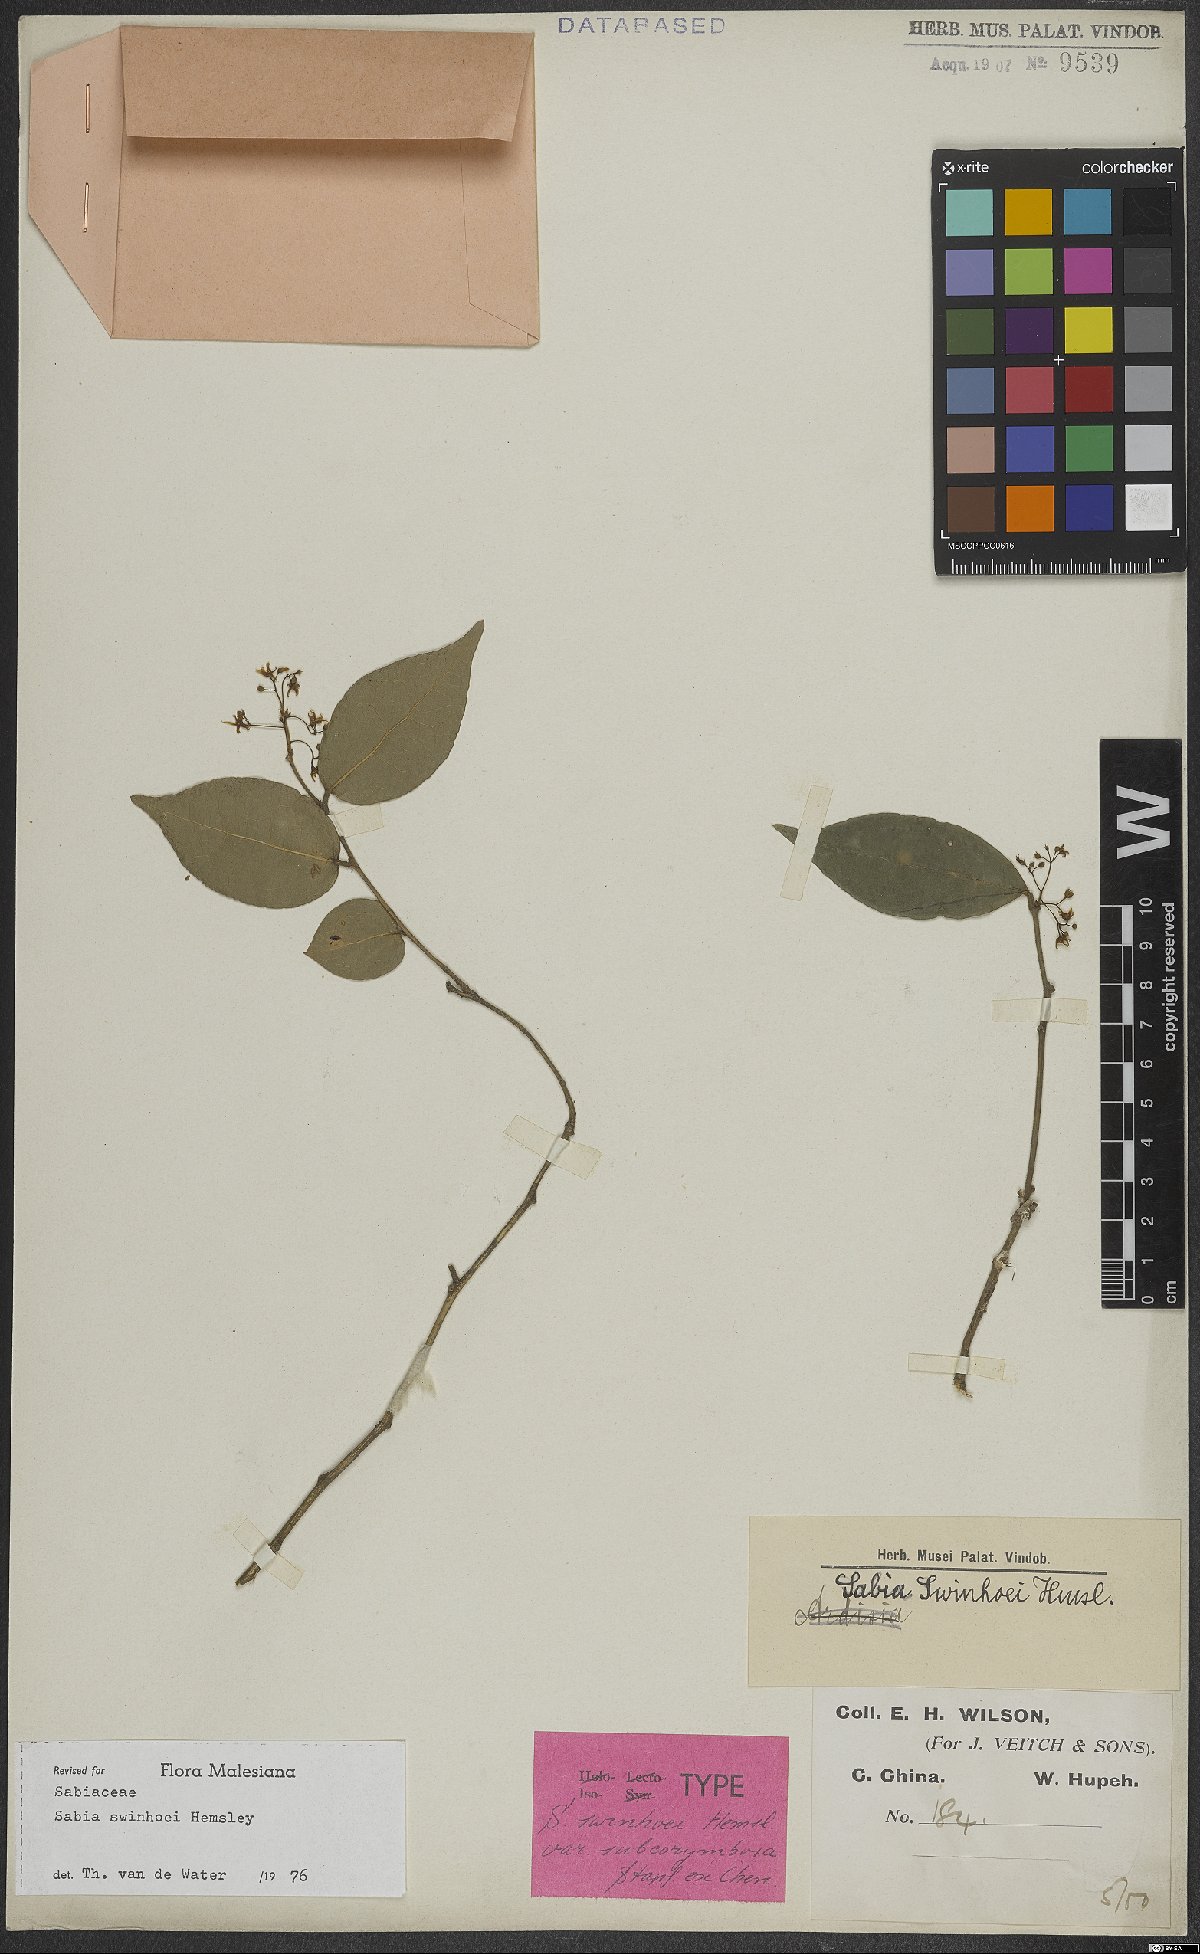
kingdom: Plantae
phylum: Tracheophyta
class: Magnoliopsida
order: Proteales
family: Sabiaceae
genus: Sabia
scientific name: Sabia swinhoei
